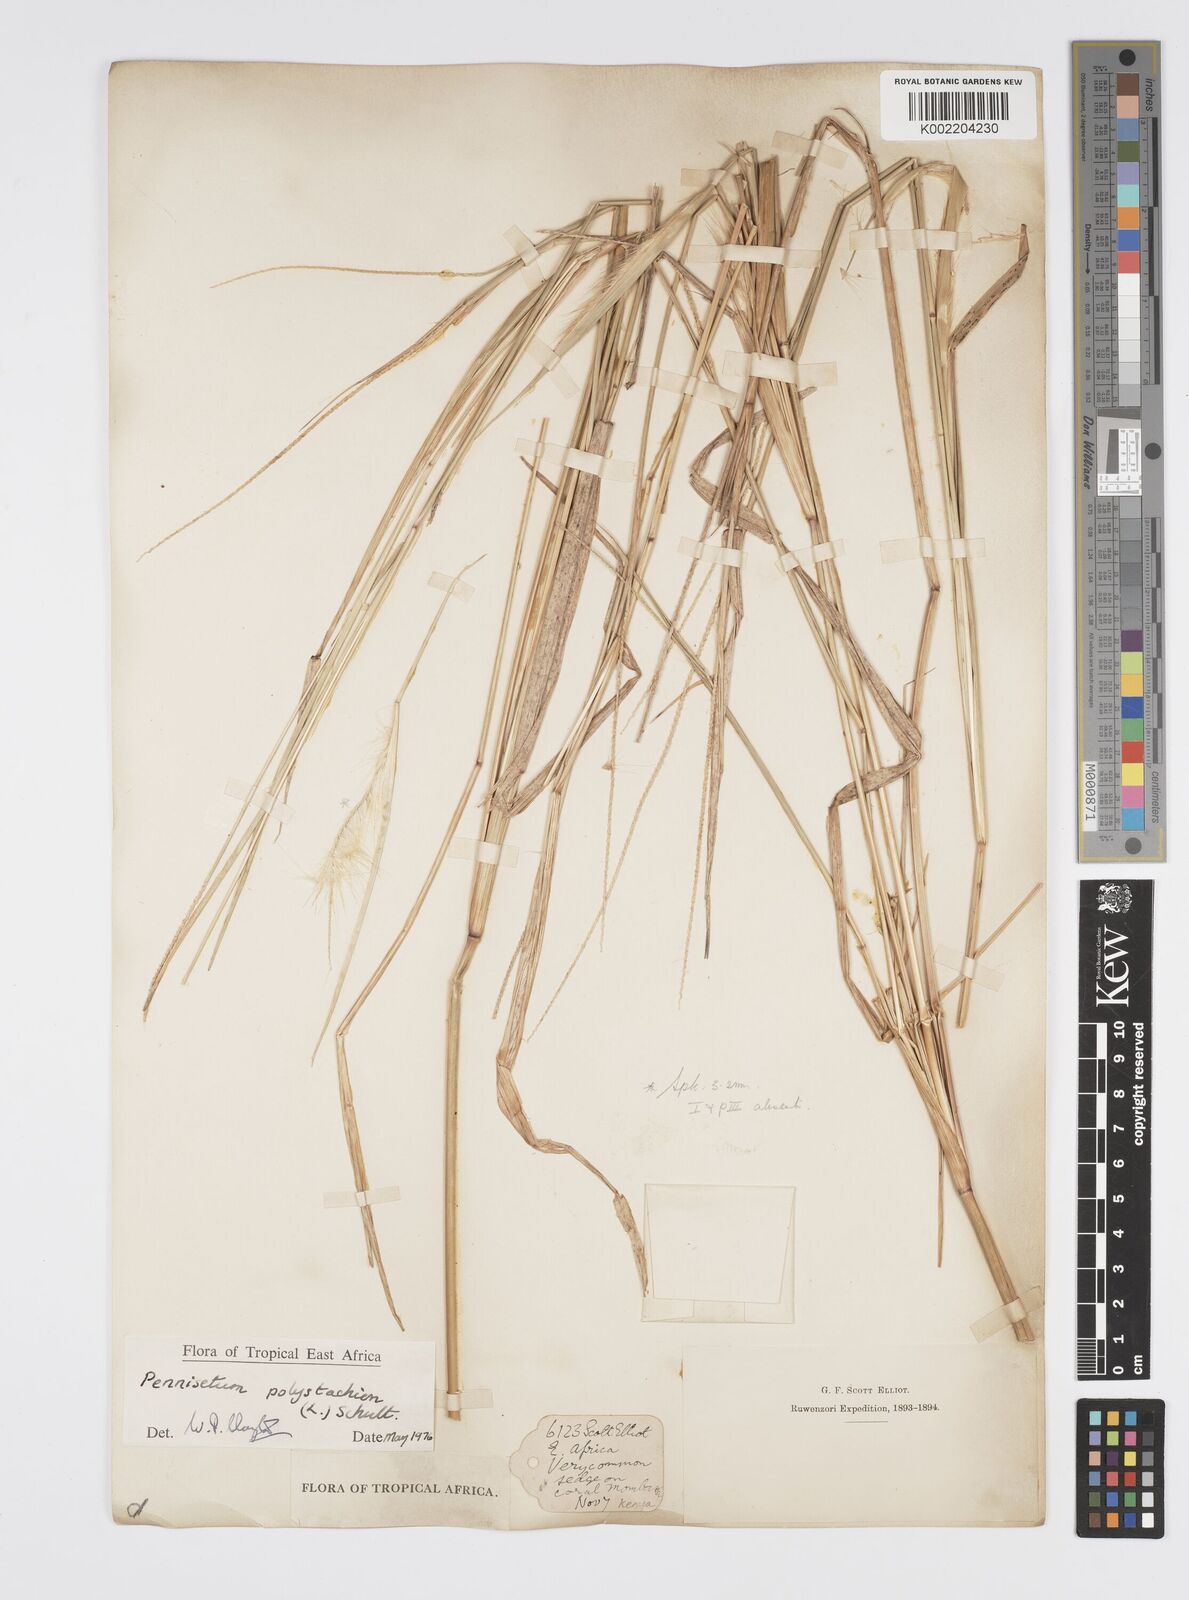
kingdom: Plantae
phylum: Tracheophyta
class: Liliopsida
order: Poales
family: Poaceae
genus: Cenchrus
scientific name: Cenchrus Pennisetum spec
